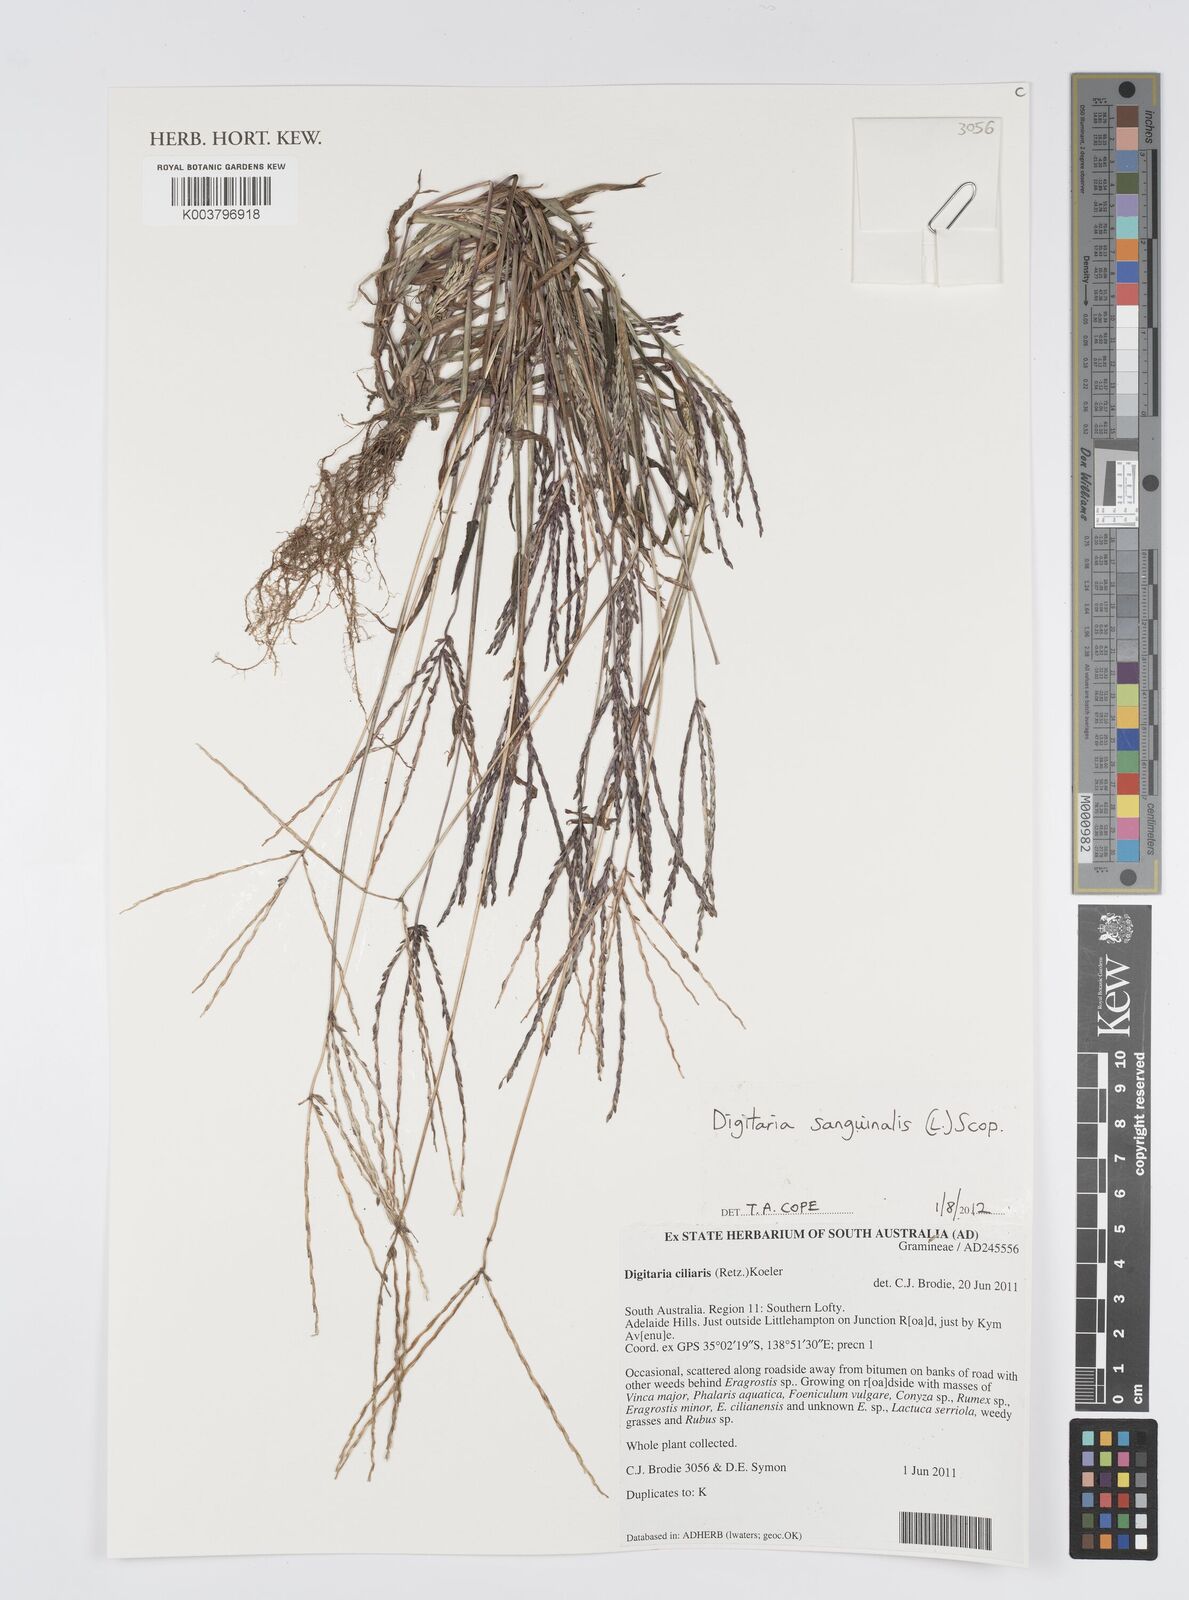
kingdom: Plantae
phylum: Tracheophyta
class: Liliopsida
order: Poales
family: Poaceae
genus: Digitaria
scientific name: Digitaria sanguinalis
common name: Hairy crabgrass
